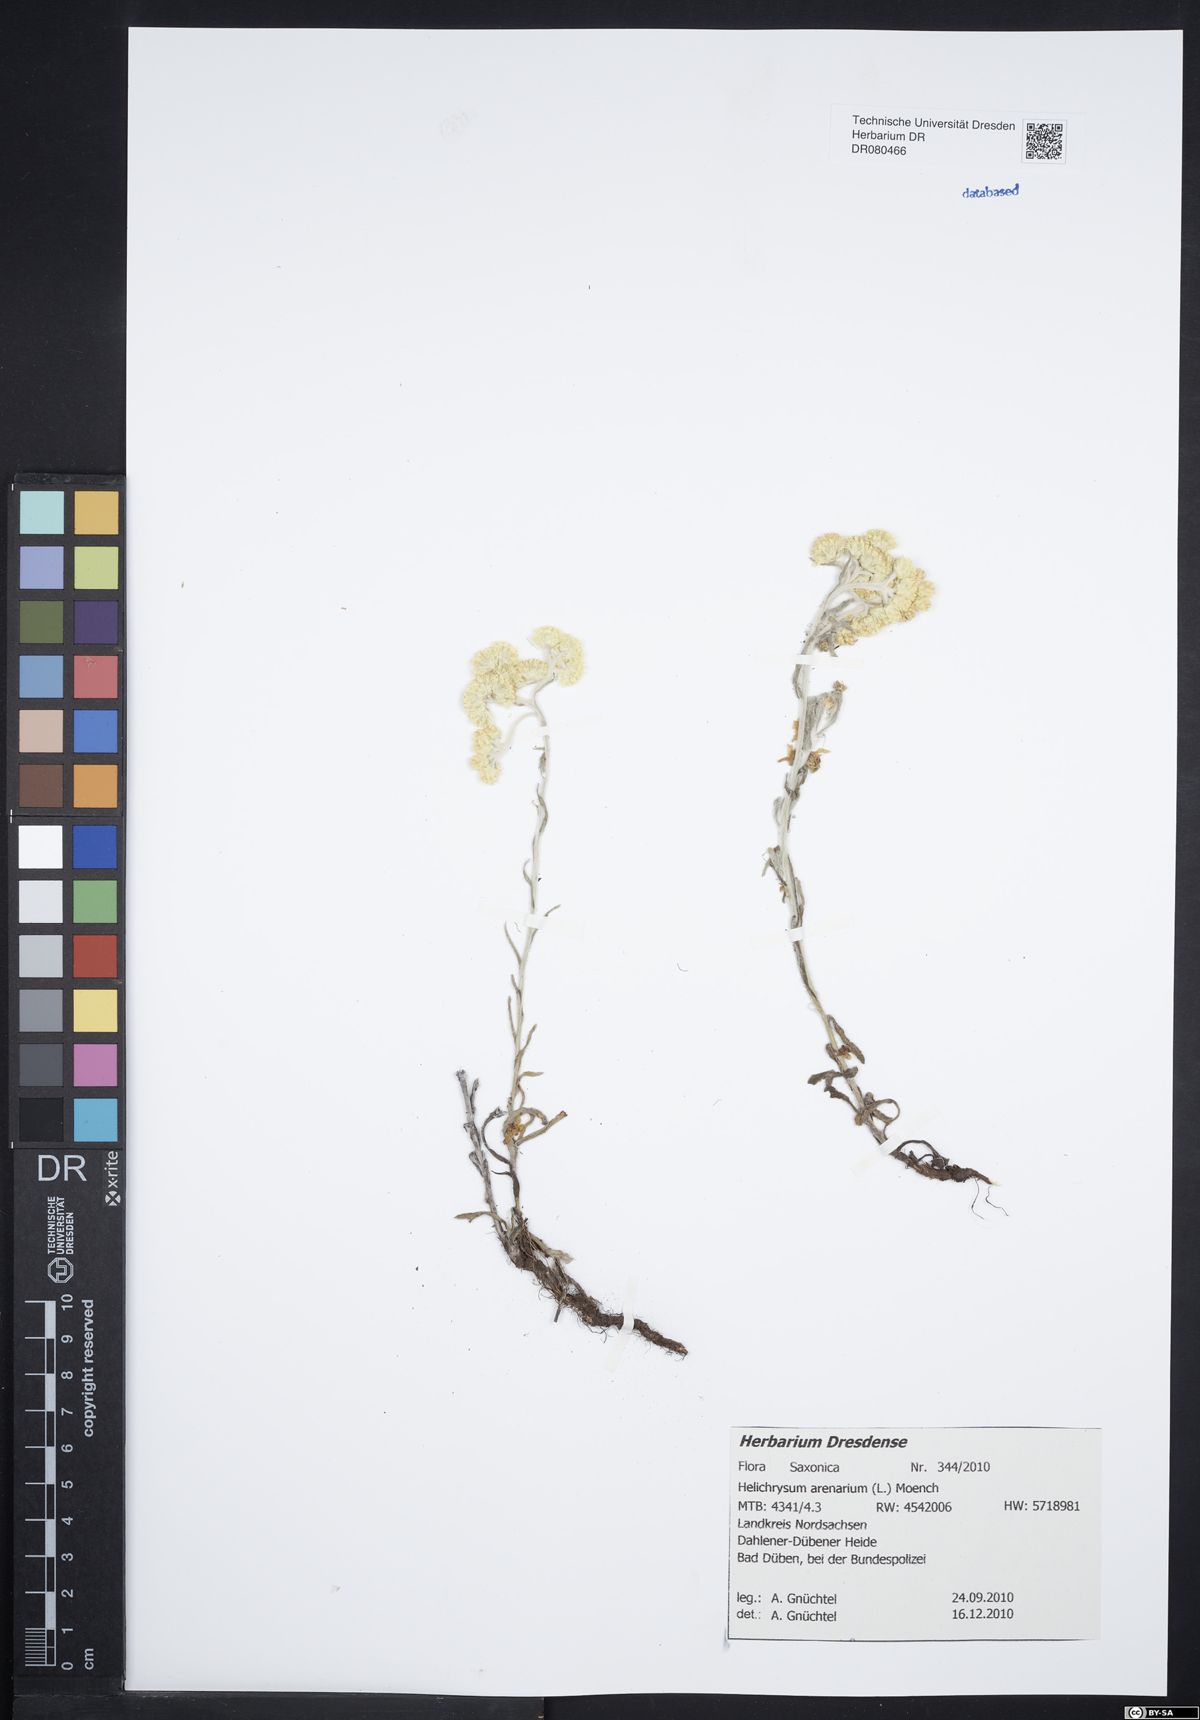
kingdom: Plantae
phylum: Tracheophyta
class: Magnoliopsida
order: Asterales
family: Asteraceae
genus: Helichrysum
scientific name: Helichrysum arenarium
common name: Strawflower
